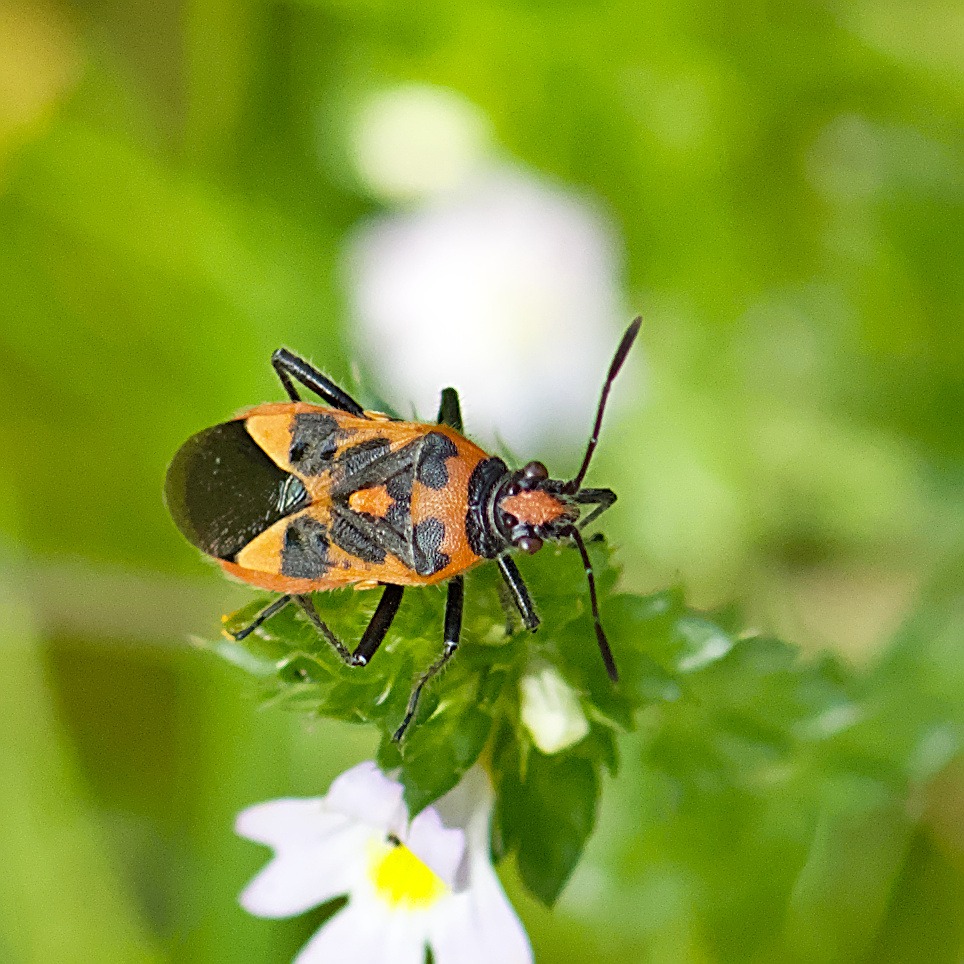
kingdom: Animalia
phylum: Arthropoda
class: Insecta
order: Hemiptera
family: Rhopalidae
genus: Corizus
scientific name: Corizus hyoscyami
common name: Rød kanttæge
